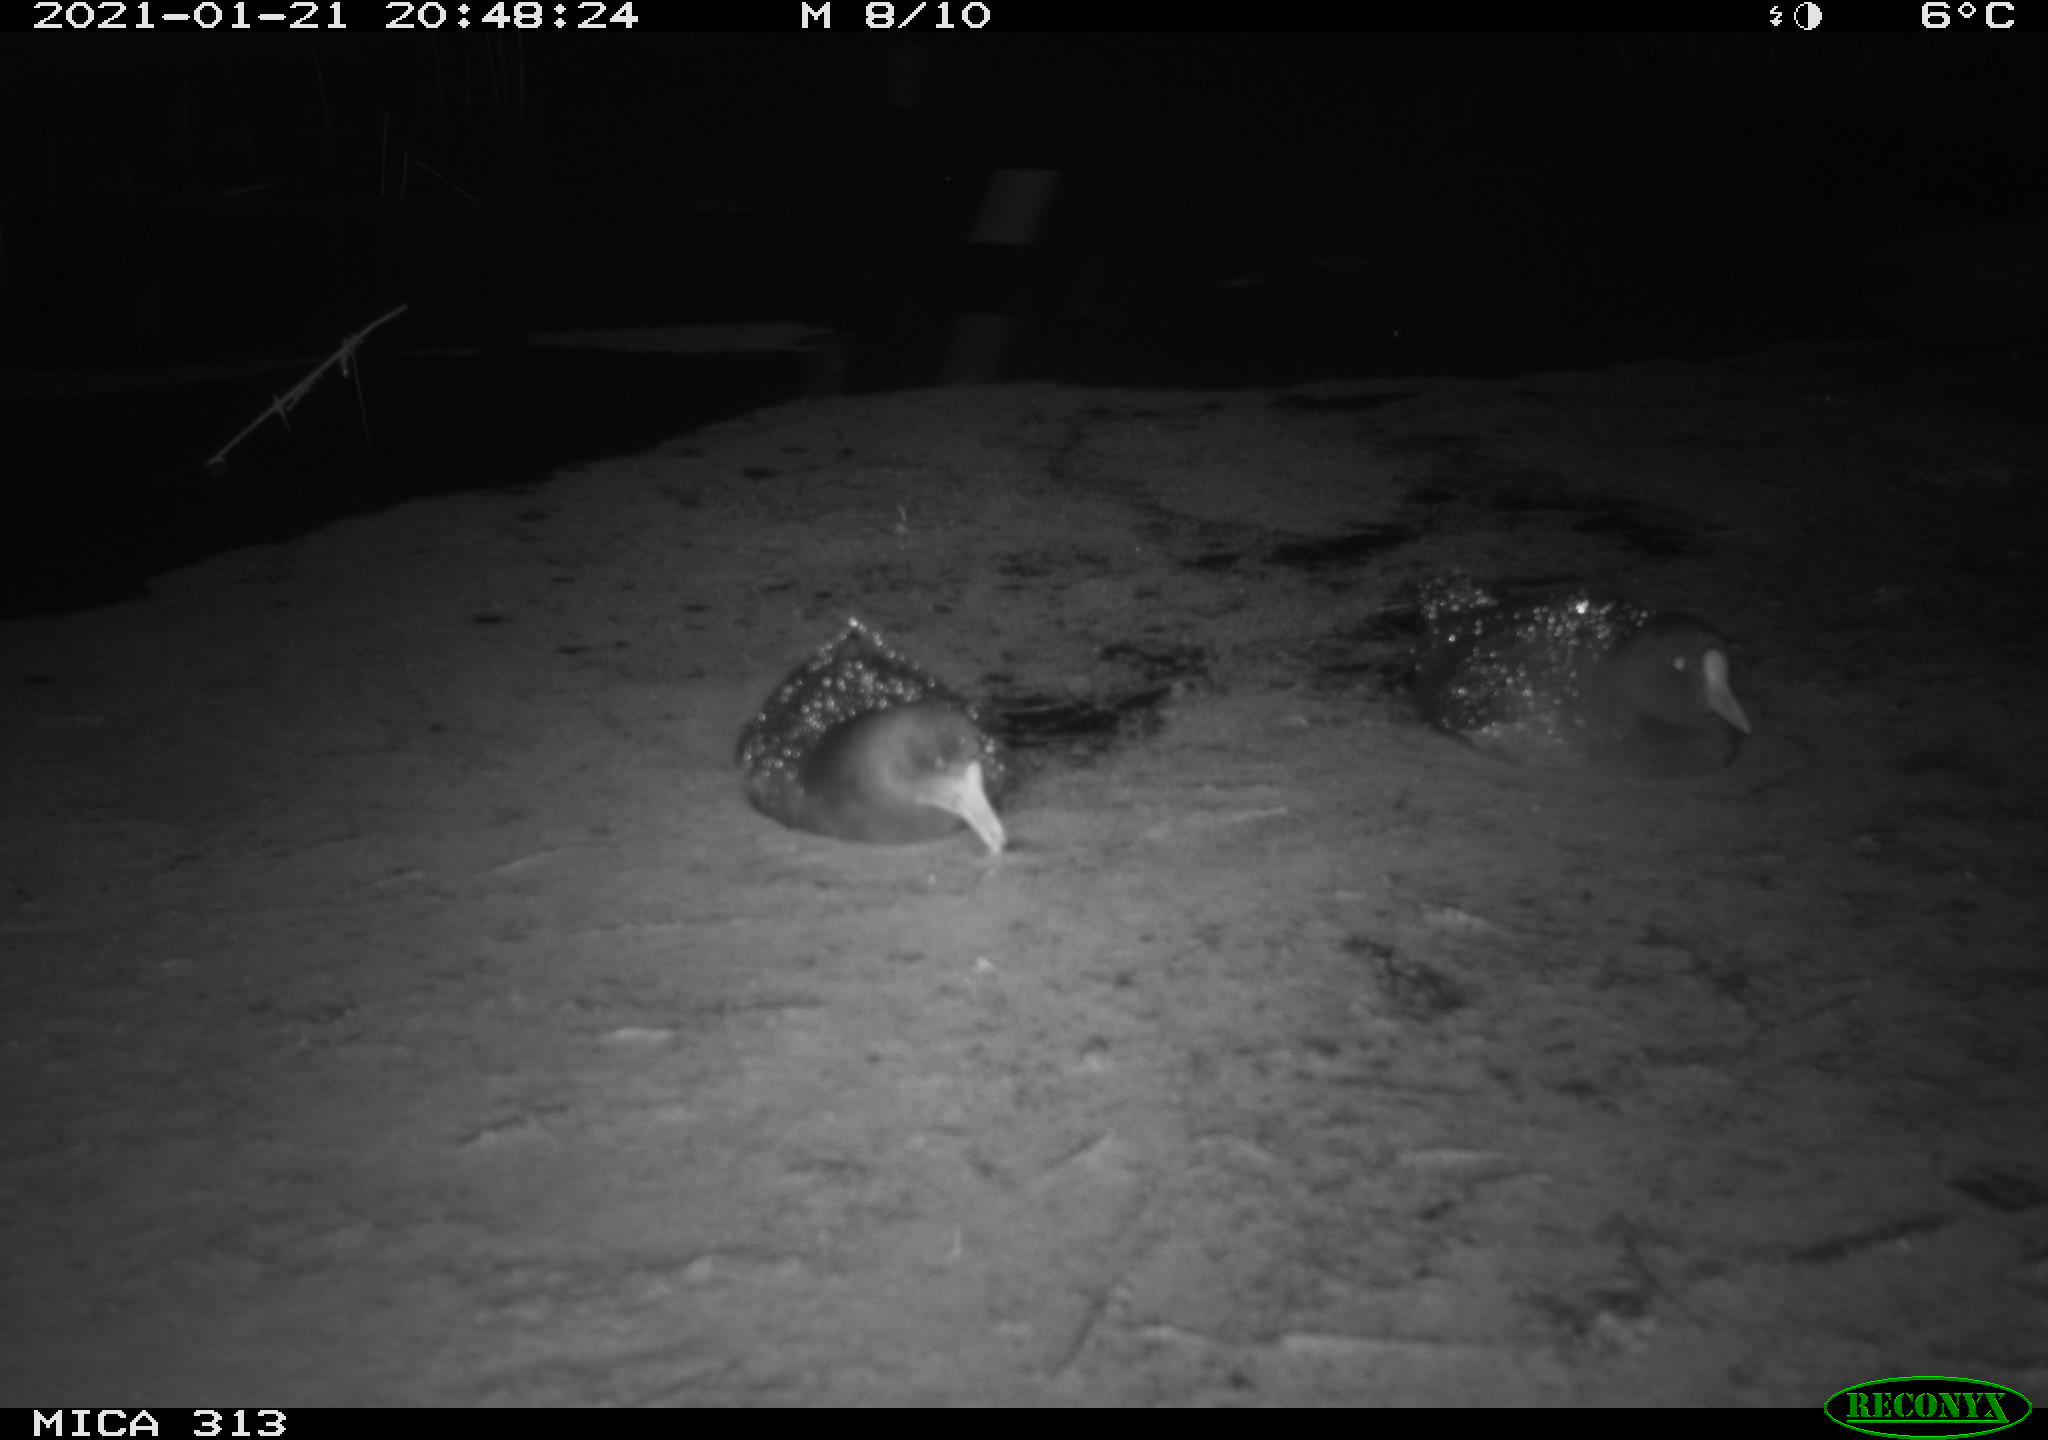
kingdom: Animalia
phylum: Chordata
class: Aves
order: Gruiformes
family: Rallidae
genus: Gallinula
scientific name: Gallinula chloropus
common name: Common moorhen
